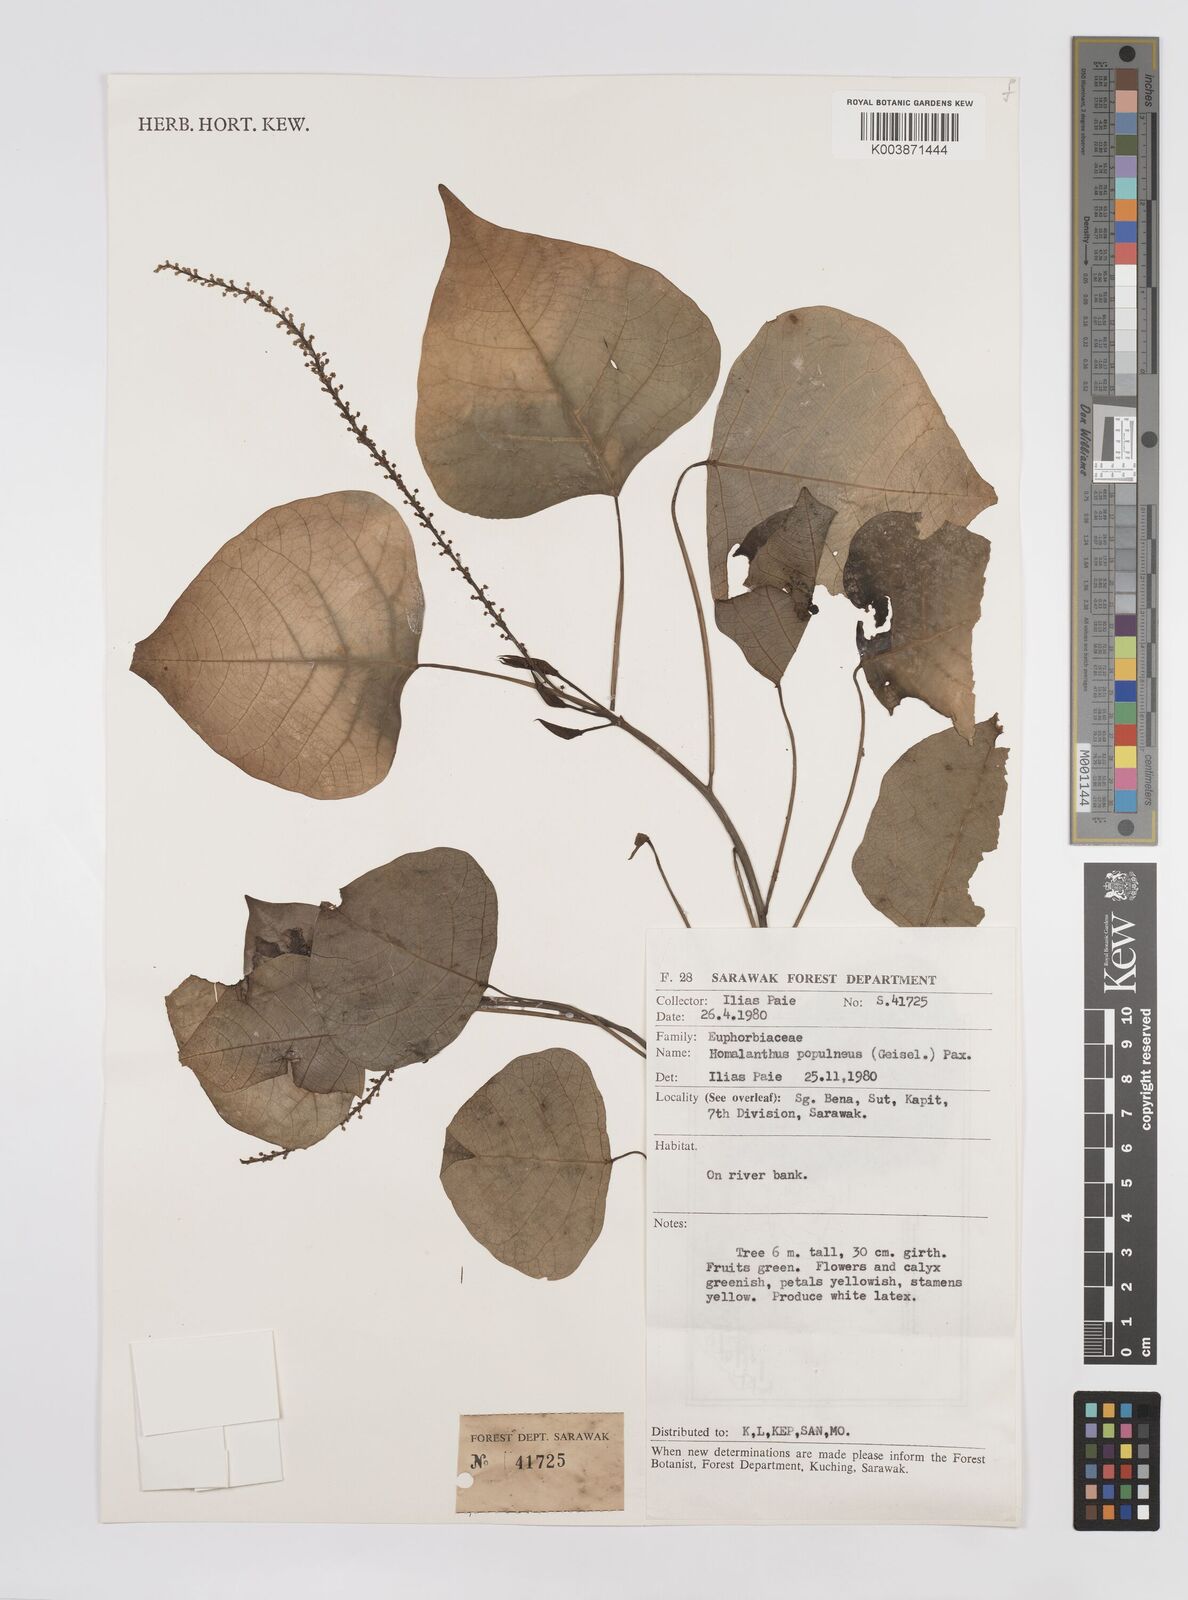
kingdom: Plantae
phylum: Tracheophyta
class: Magnoliopsida
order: Malpighiales
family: Euphorbiaceae
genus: Homalanthus
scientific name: Homalanthus populneus
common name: Spurge
